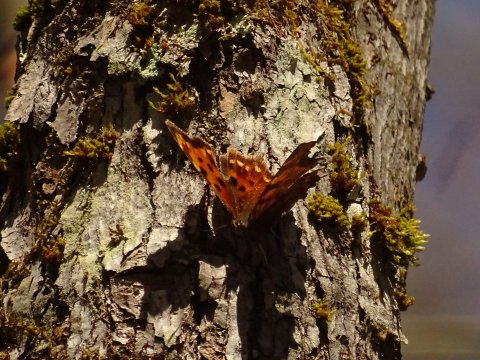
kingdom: Animalia
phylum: Arthropoda
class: Insecta
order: Lepidoptera
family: Nymphalidae
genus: Polygonia
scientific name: Polygonia
